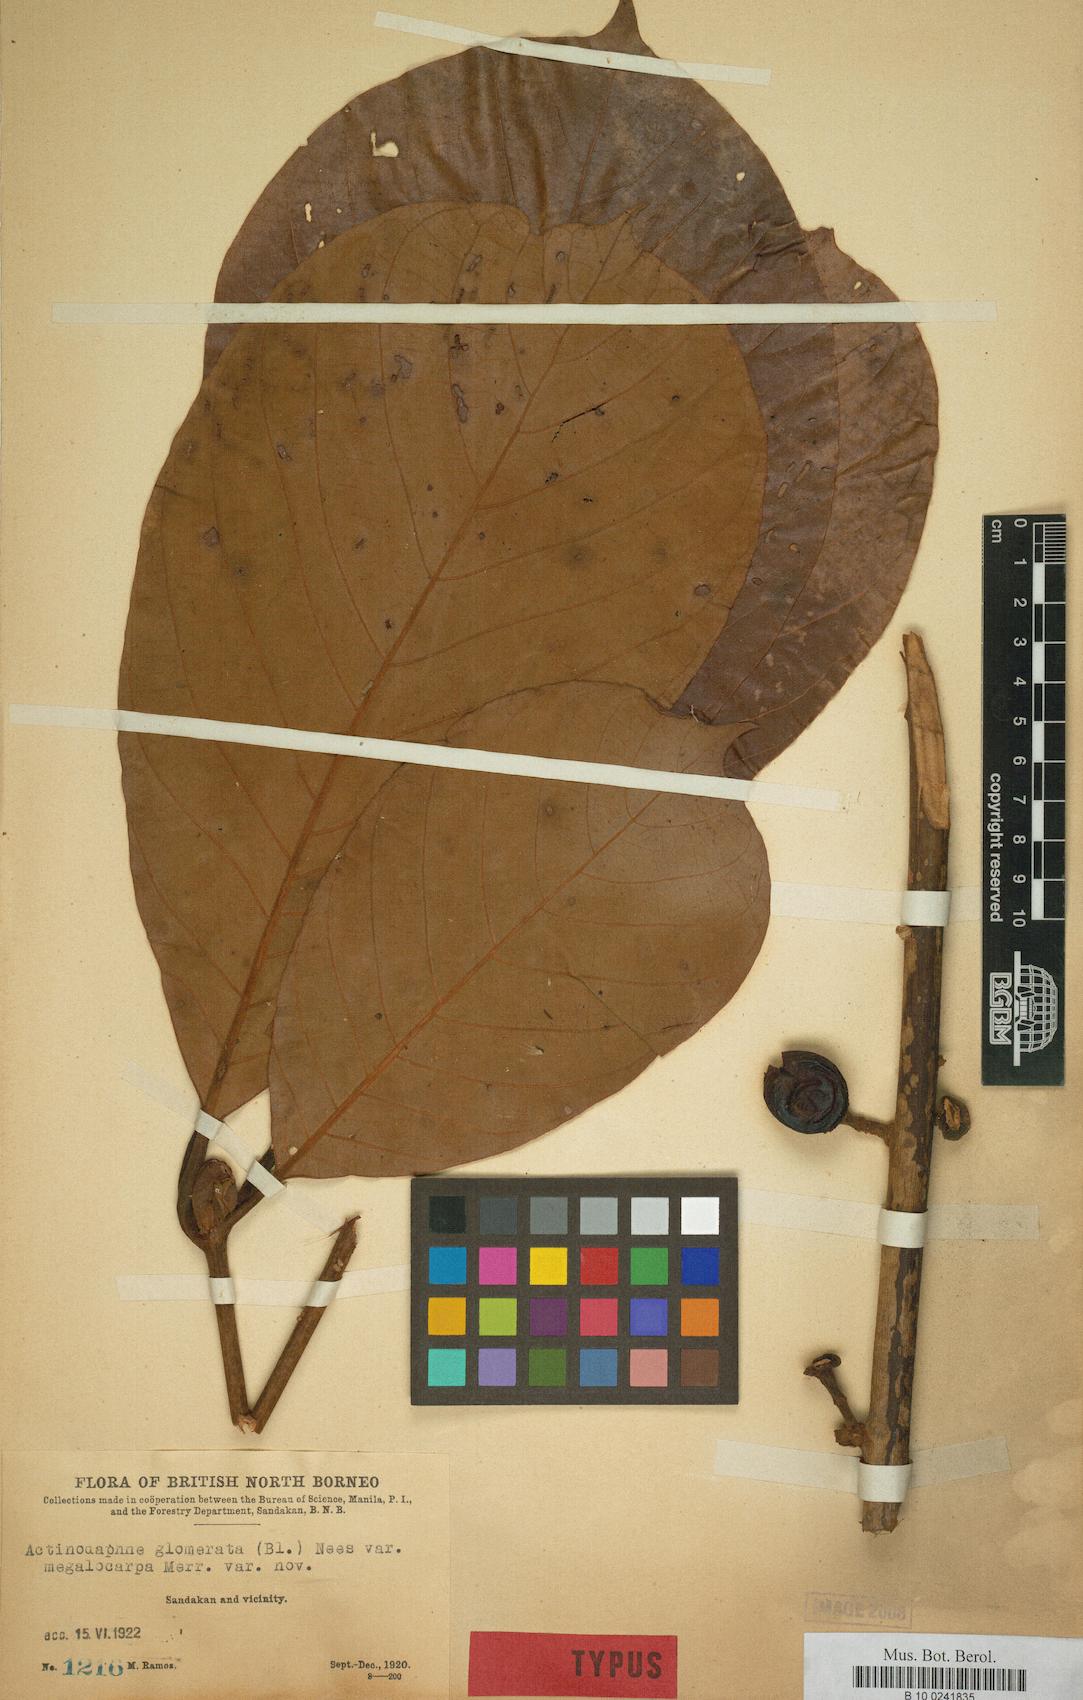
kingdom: Plantae
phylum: Tracheophyta
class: Magnoliopsida
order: Laurales
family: Lauraceae
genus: Actinodaphne
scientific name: Actinodaphne glomerata
